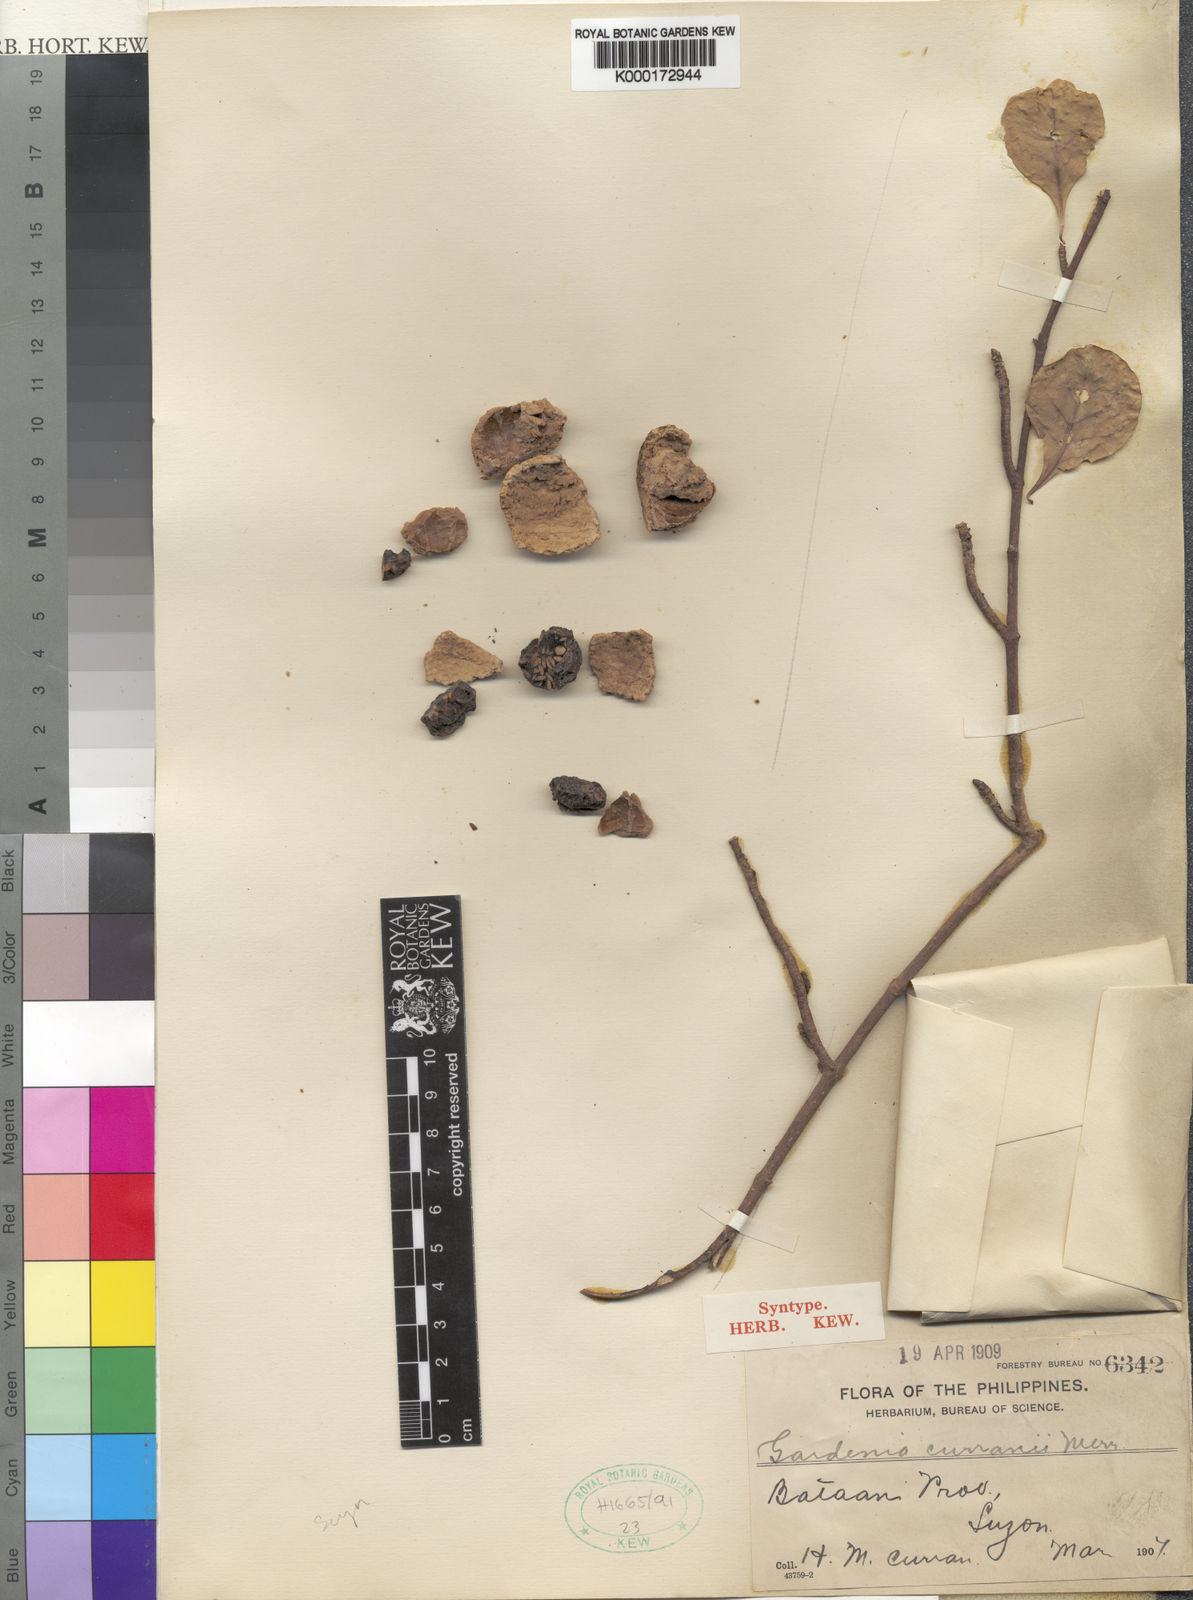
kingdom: Plantae
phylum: Tracheophyta
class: Magnoliopsida
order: Gentianales
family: Rubiaceae
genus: Ceriscoides
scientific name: Ceriscoides curranii
